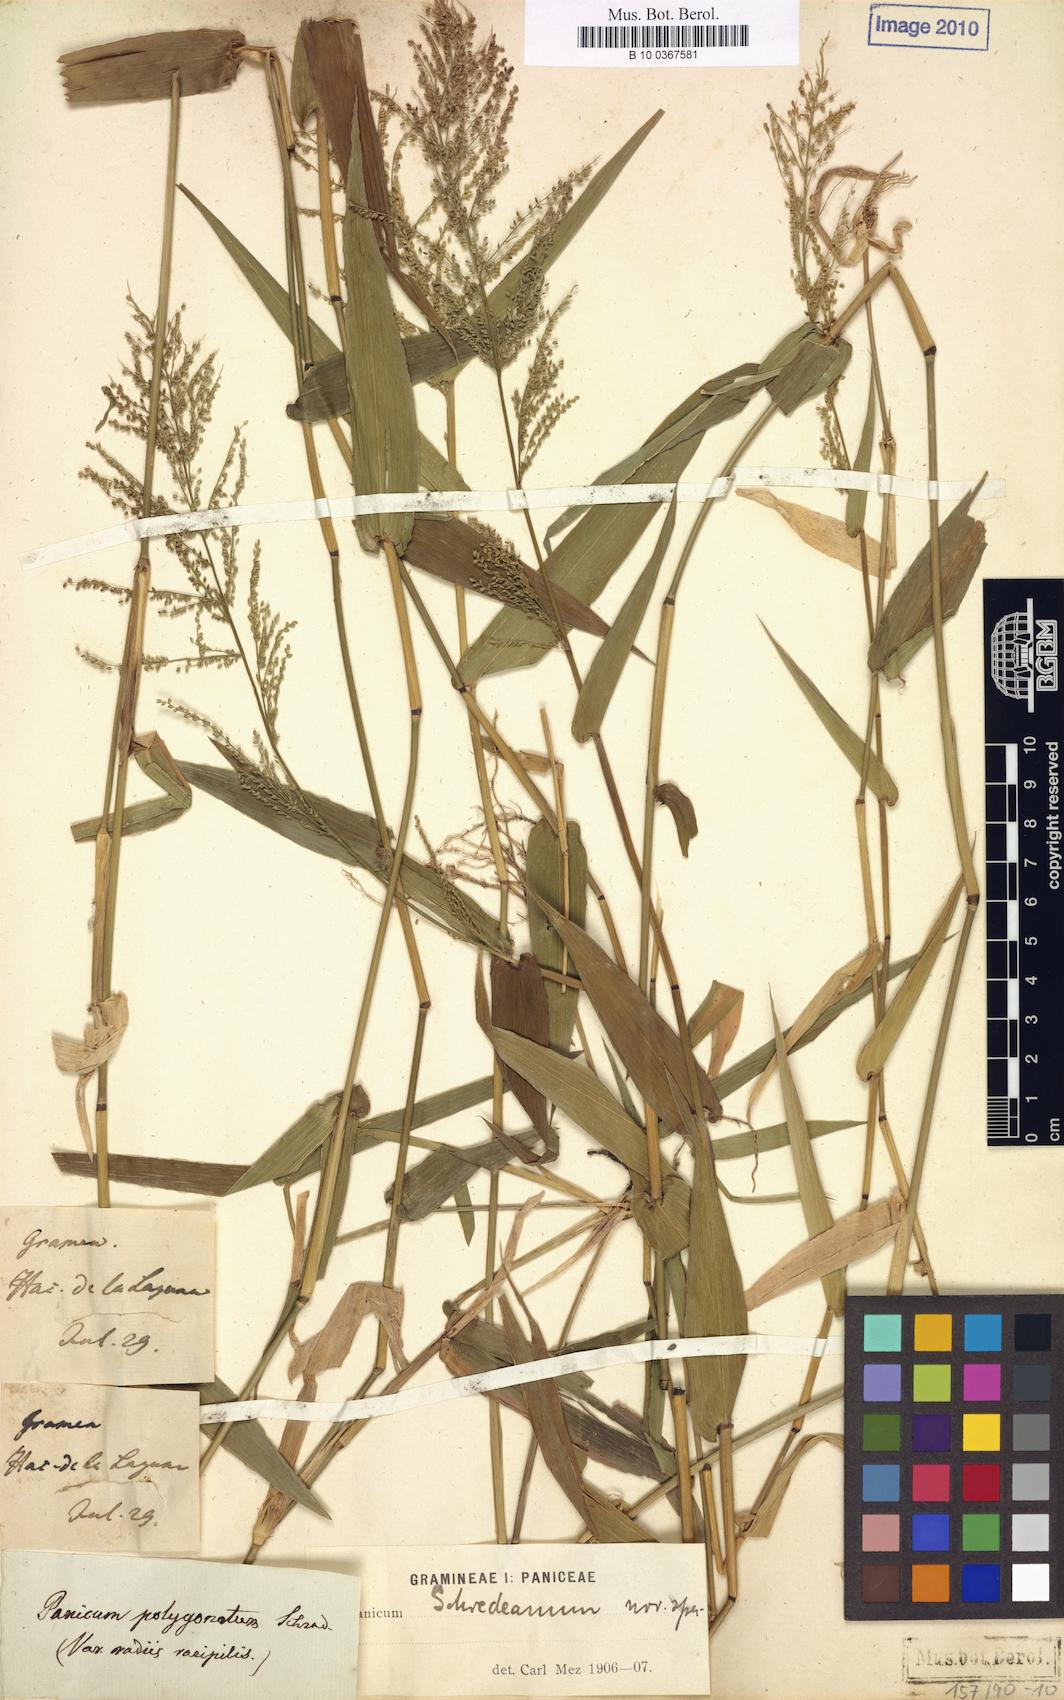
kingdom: Plantae
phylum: Tracheophyta
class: Liliopsida
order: Poales
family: Poaceae
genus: Rugoloa
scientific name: Rugoloa polygonata
